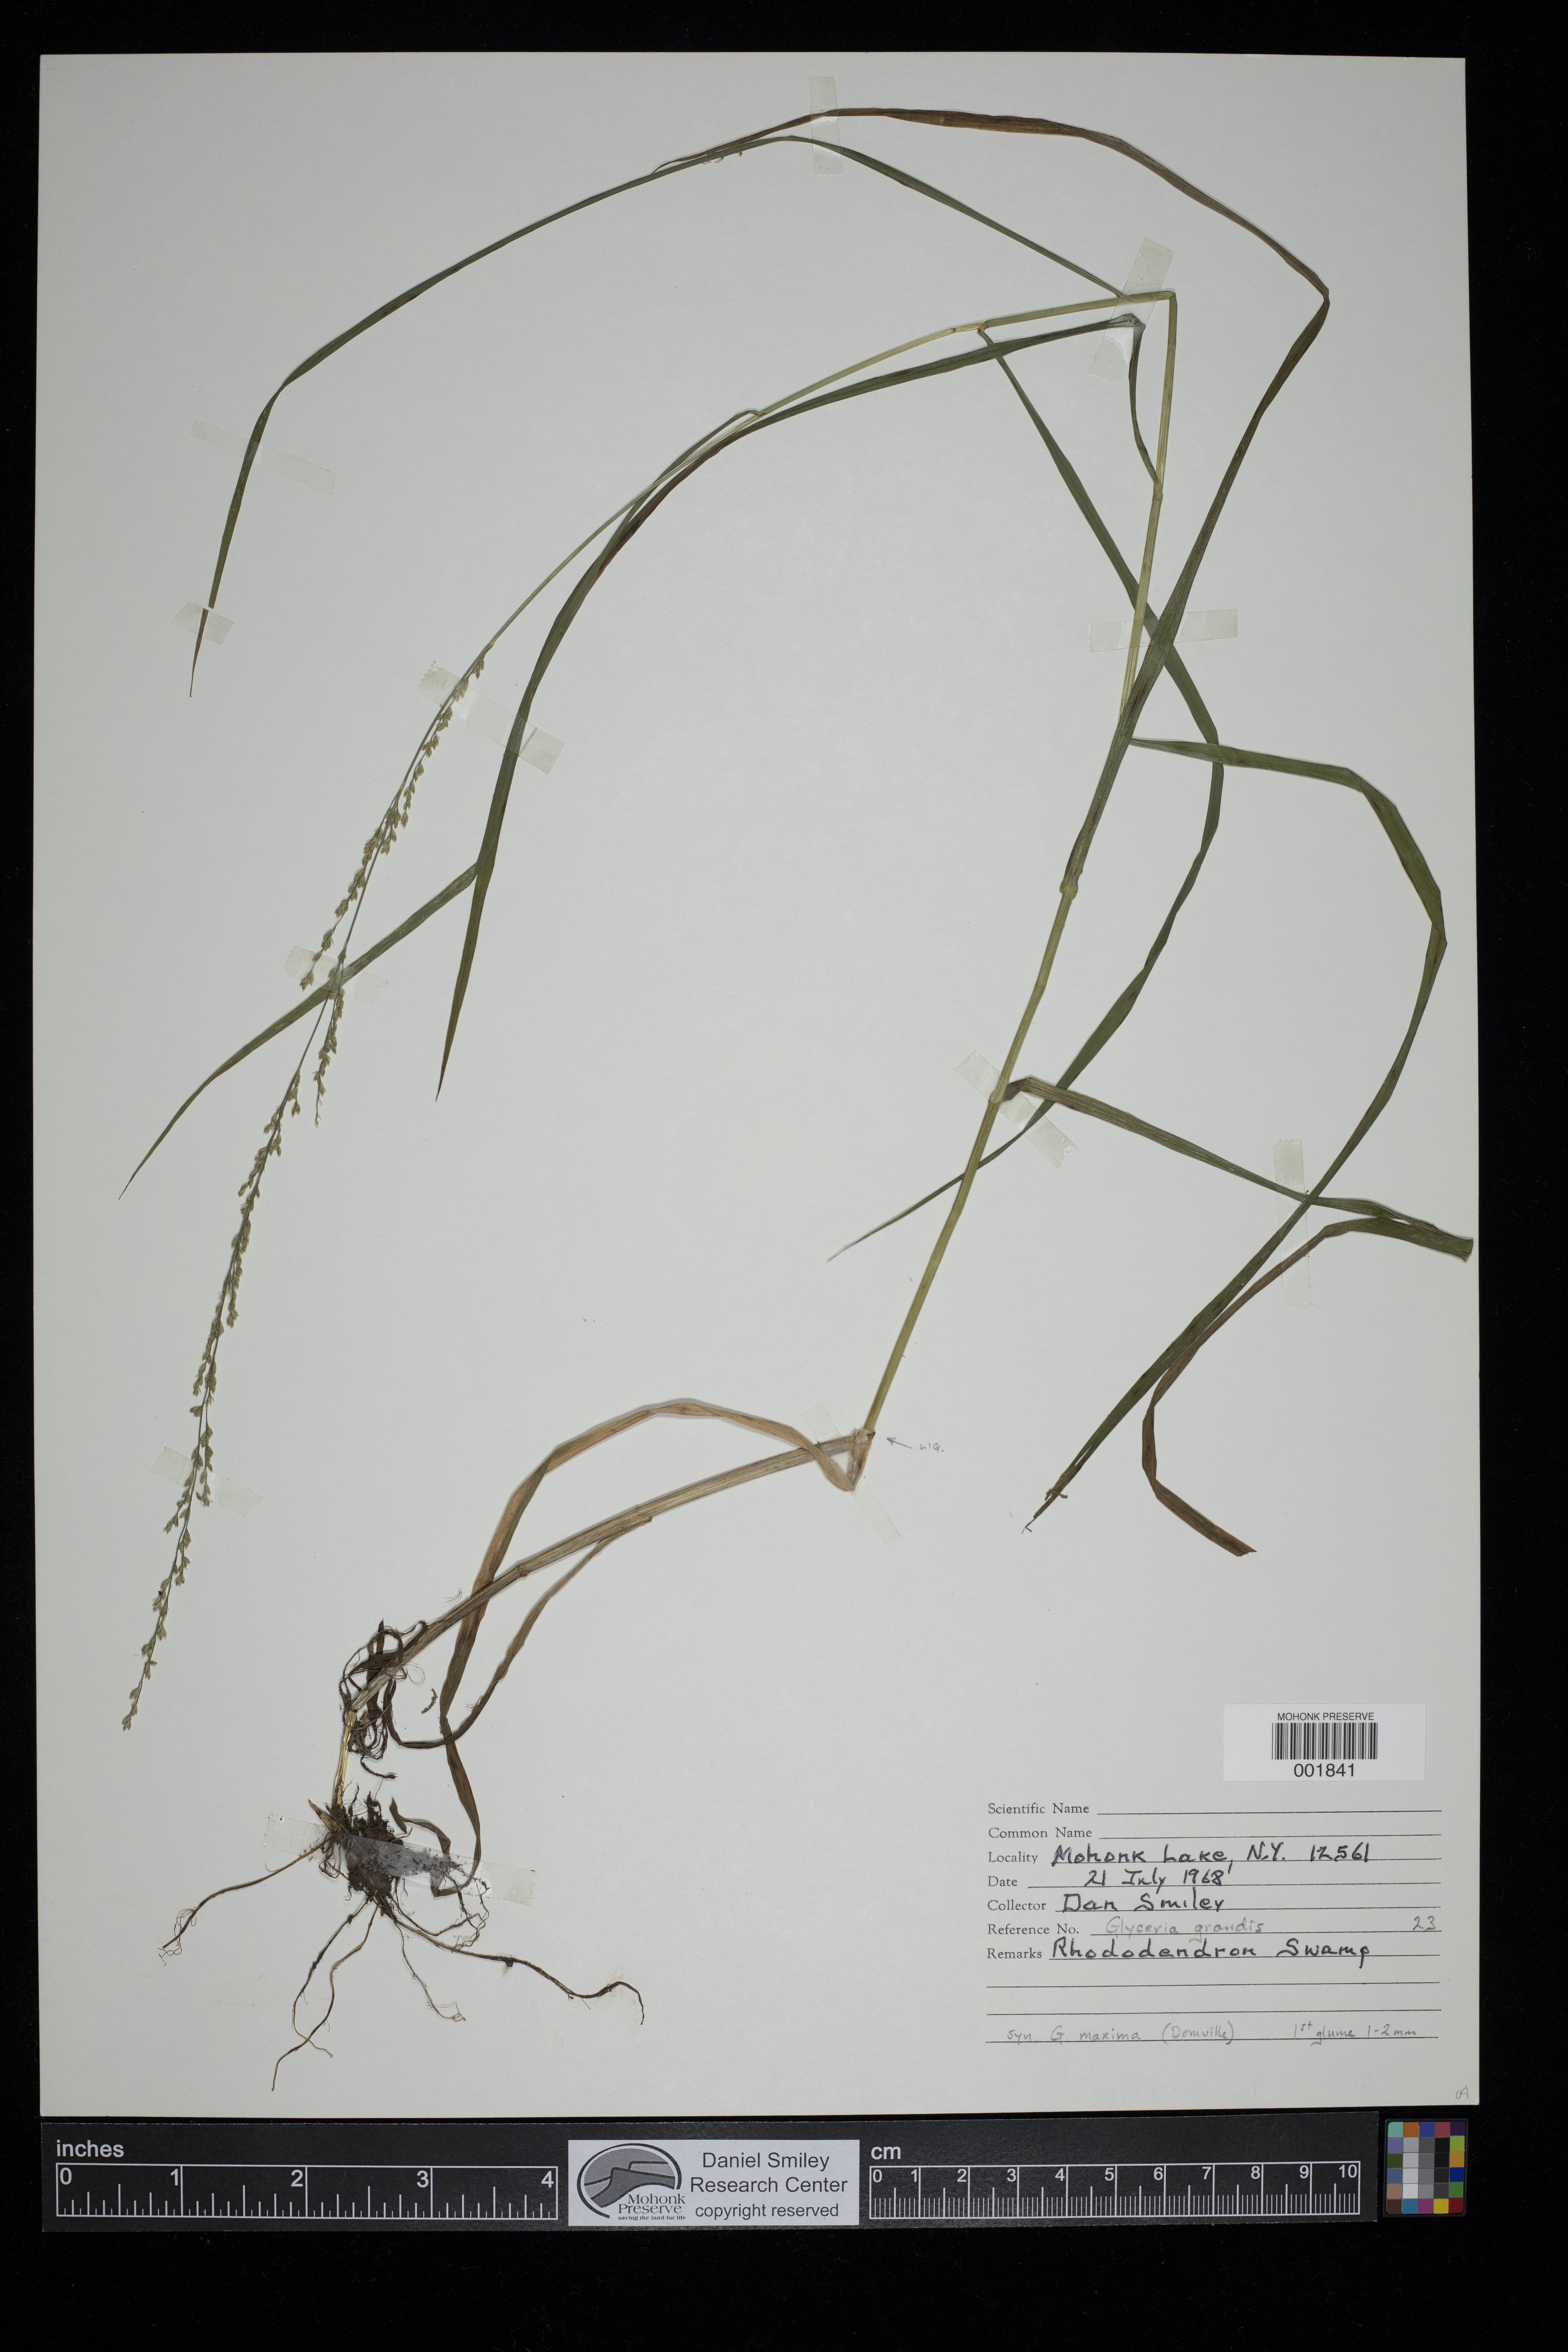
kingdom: Plantae
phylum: Tracheophyta
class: Liliopsida
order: Poales
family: Poaceae
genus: Glyceria
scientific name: Glyceria grandis
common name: American glyceria
